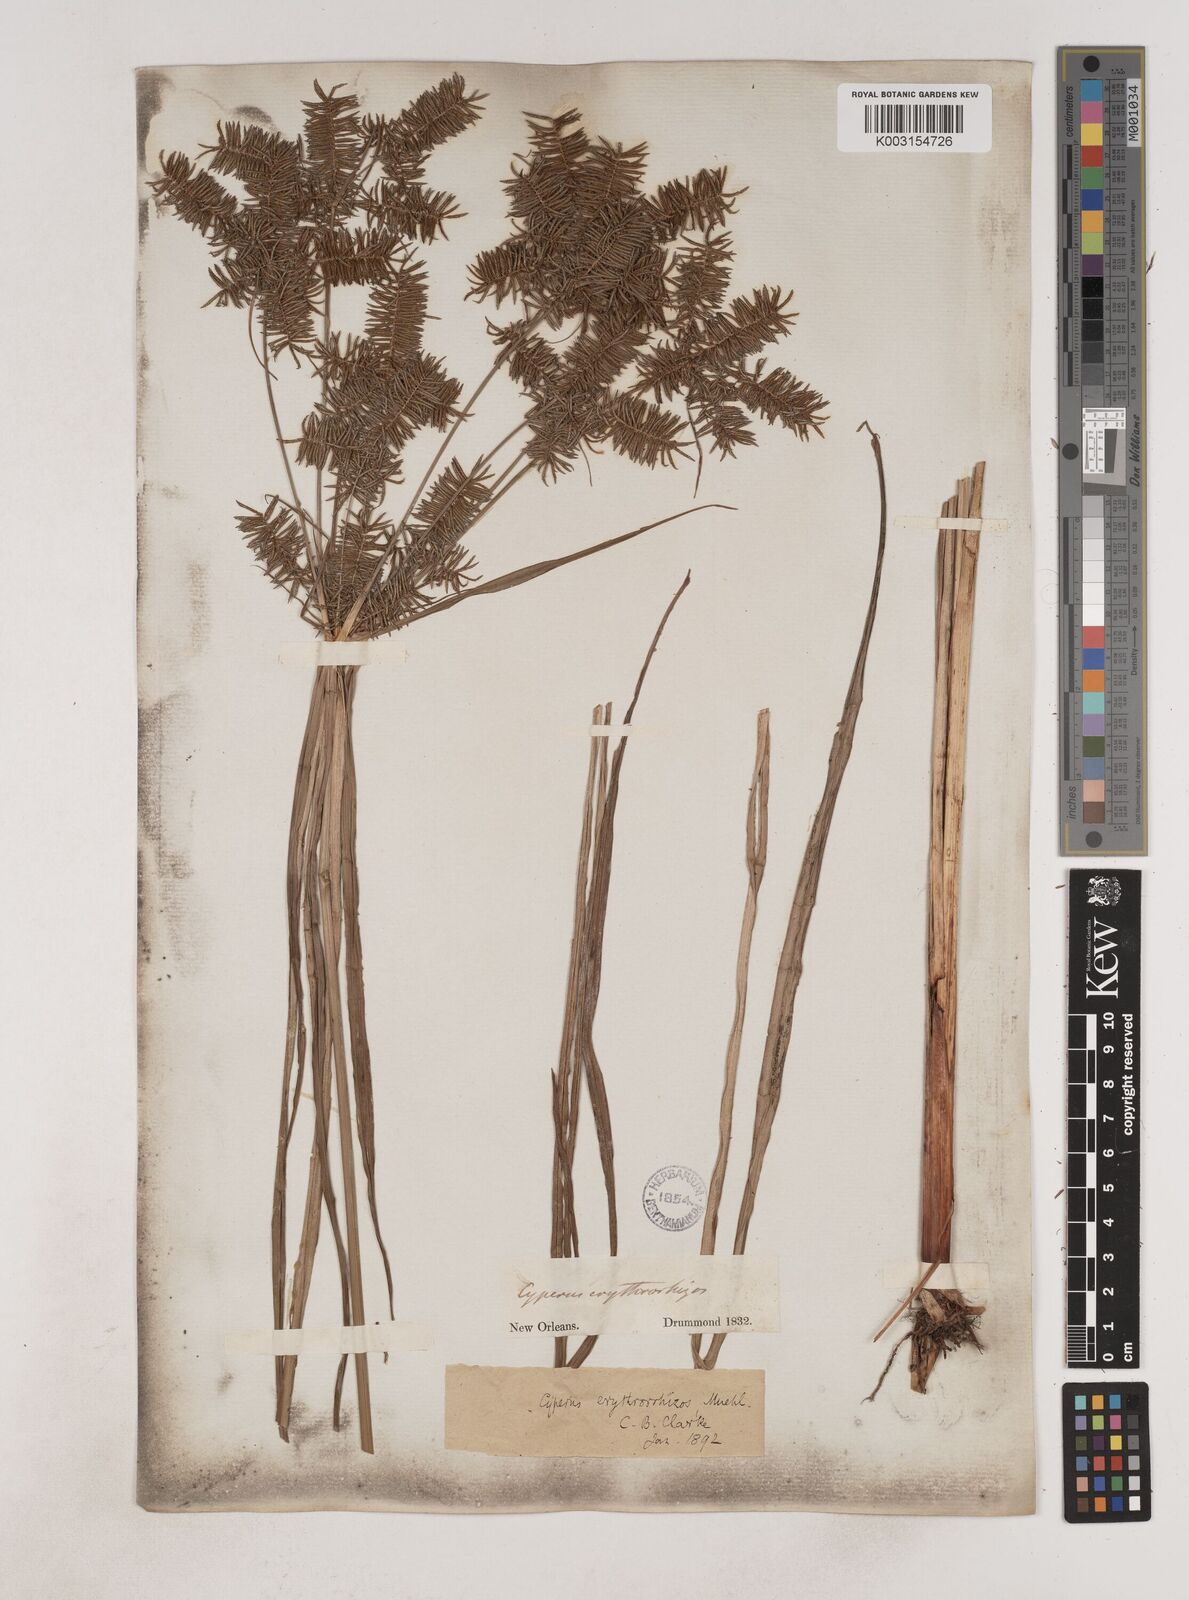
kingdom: Plantae
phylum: Tracheophyta
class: Liliopsida
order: Poales
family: Cyperaceae
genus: Cyperus
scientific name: Cyperus erythrorhizos
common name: Red-root flat sedge
